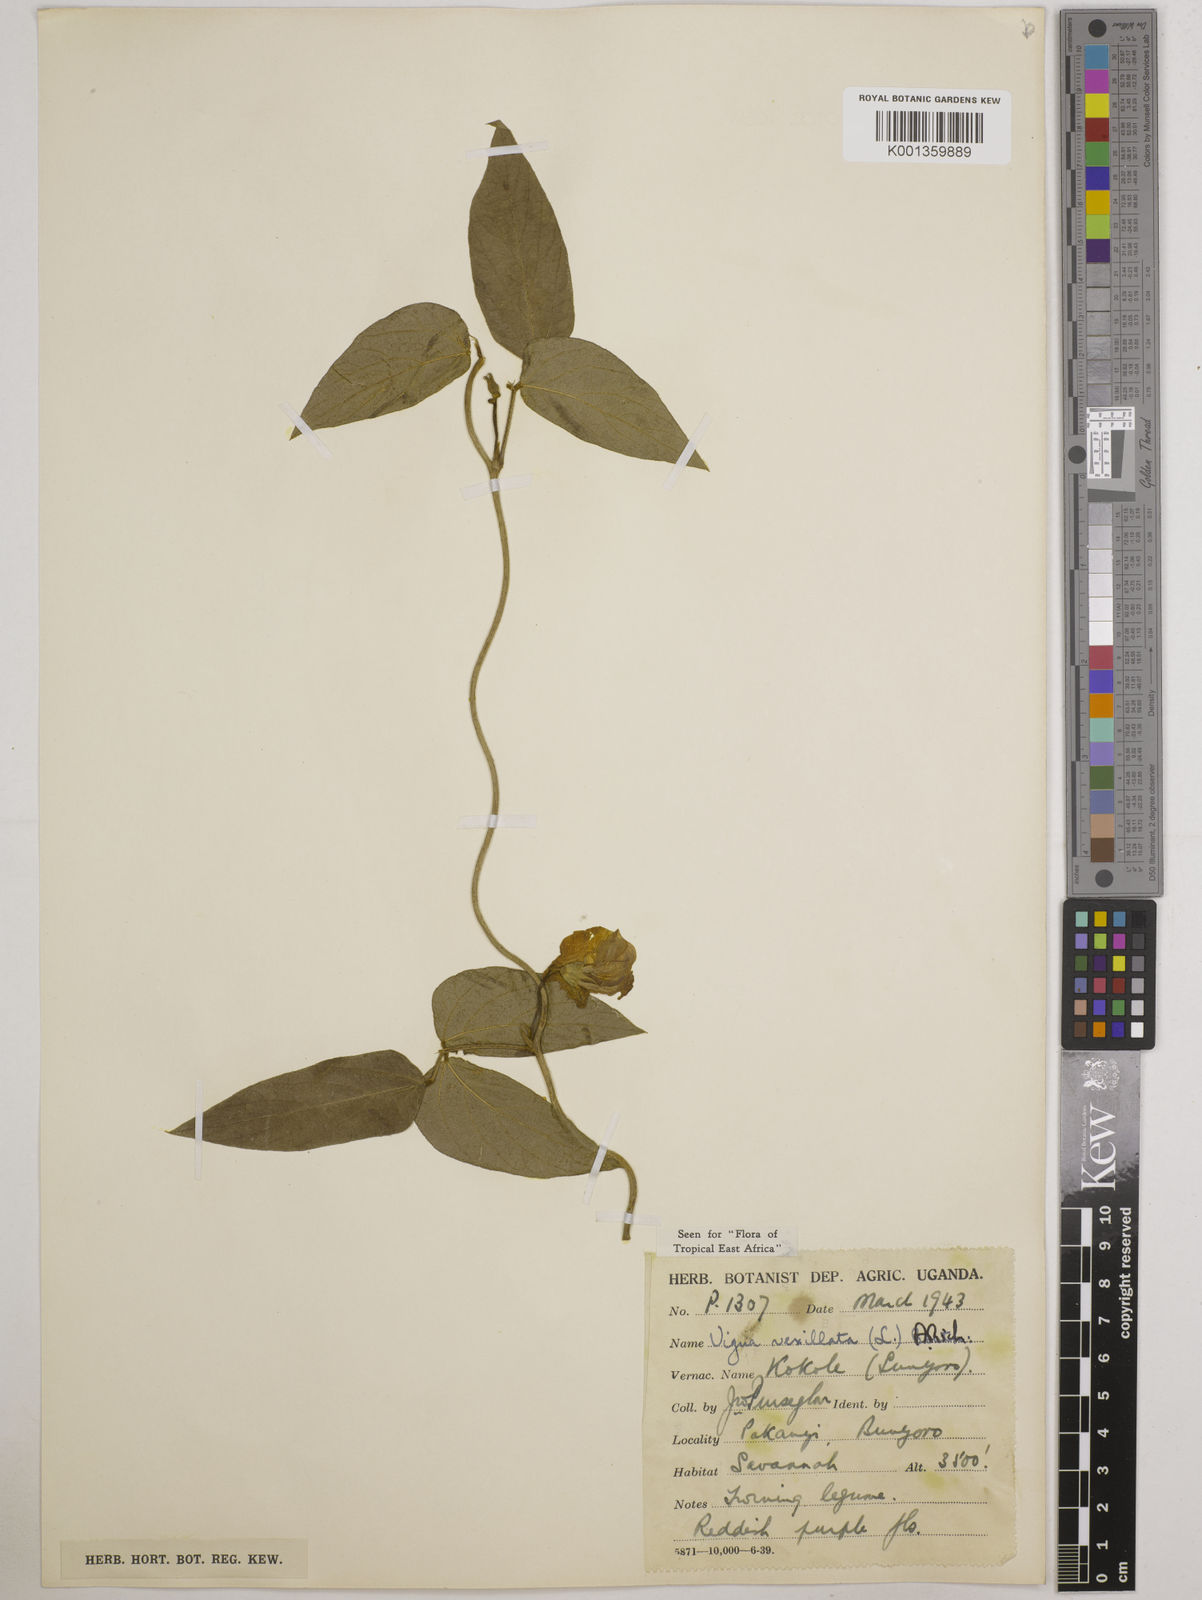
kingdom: Plantae
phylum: Tracheophyta
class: Magnoliopsida
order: Fabales
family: Fabaceae
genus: Vigna
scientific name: Vigna vexillata
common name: Zombi pea
